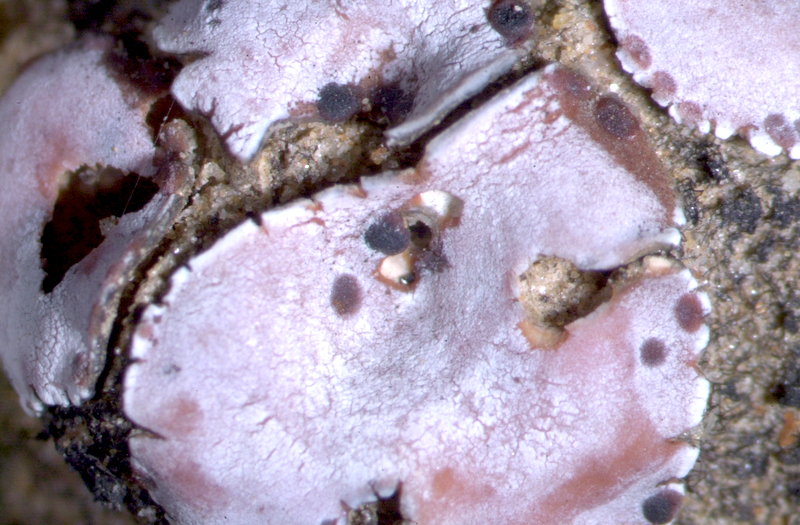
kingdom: Fungi
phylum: Ascomycota
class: Lecanoromycetes
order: Lecanorales
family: Psoraceae
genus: Psora
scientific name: Psora crenata
